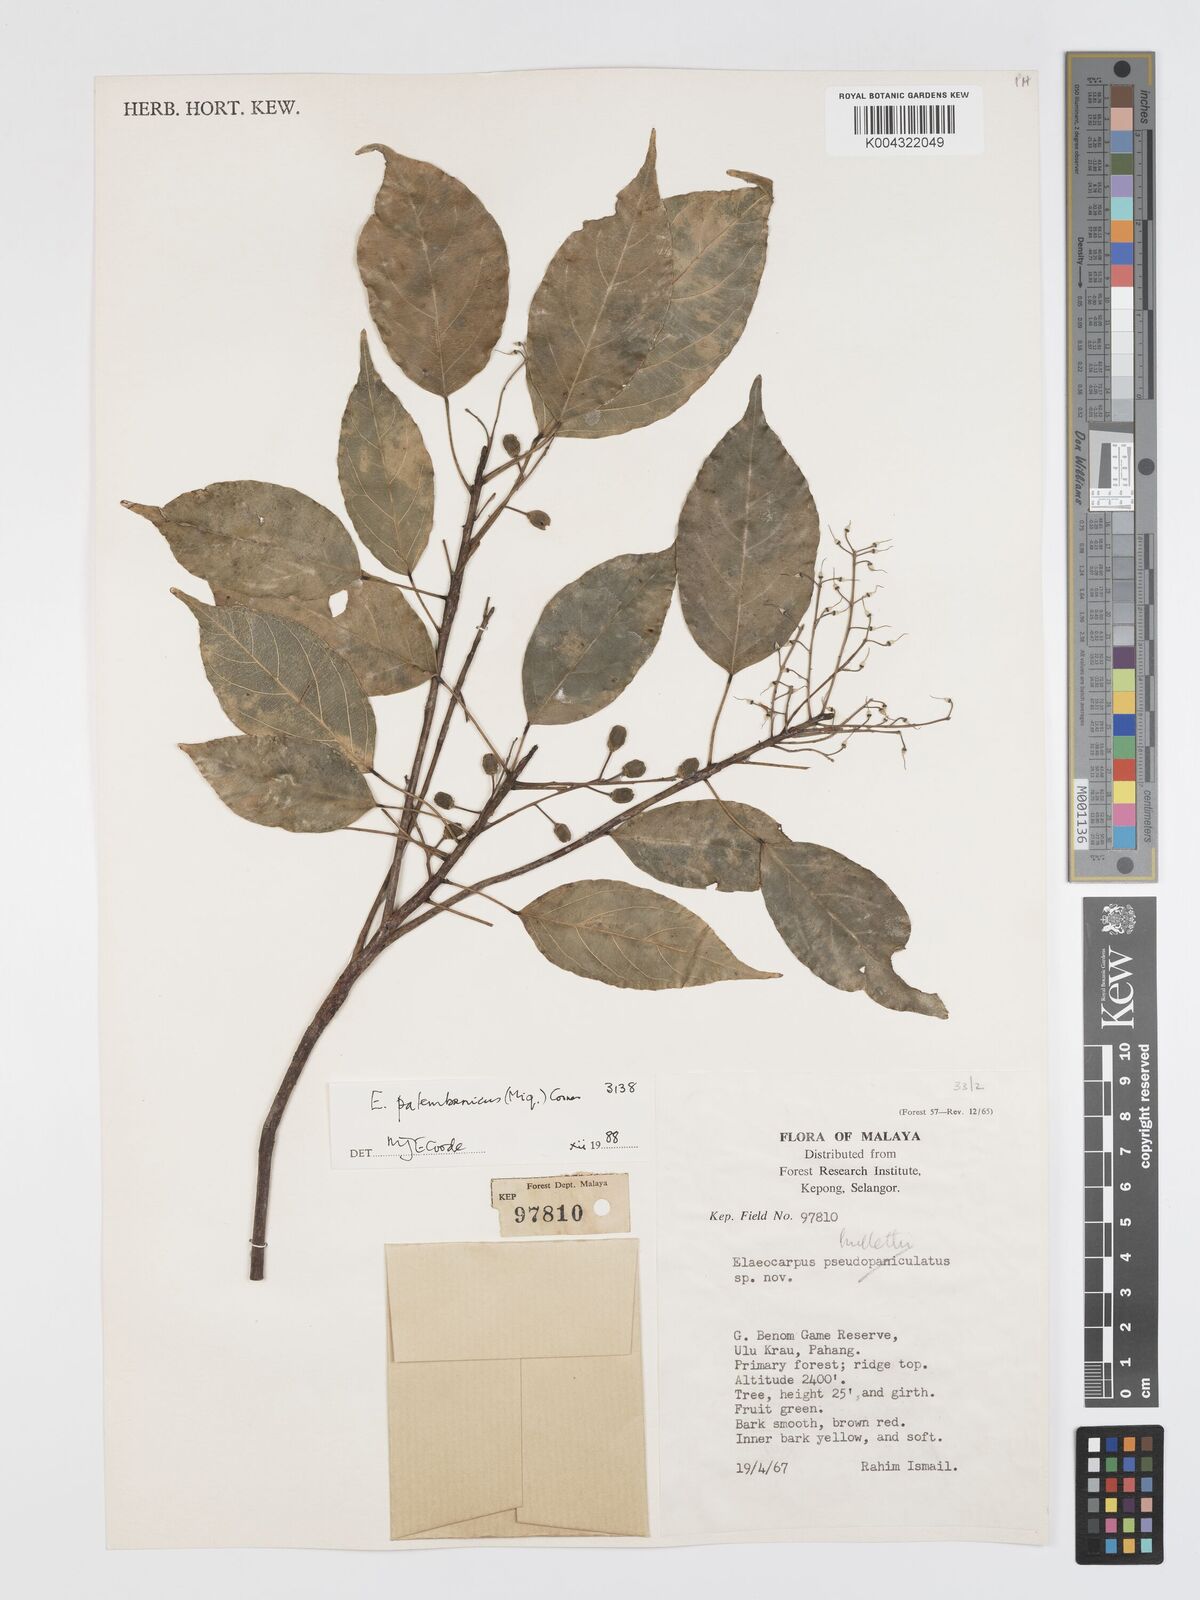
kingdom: Plantae
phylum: Tracheophyta
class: Magnoliopsida
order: Oxalidales
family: Elaeocarpaceae
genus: Elaeocarpus
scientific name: Elaeocarpus palembanicus
